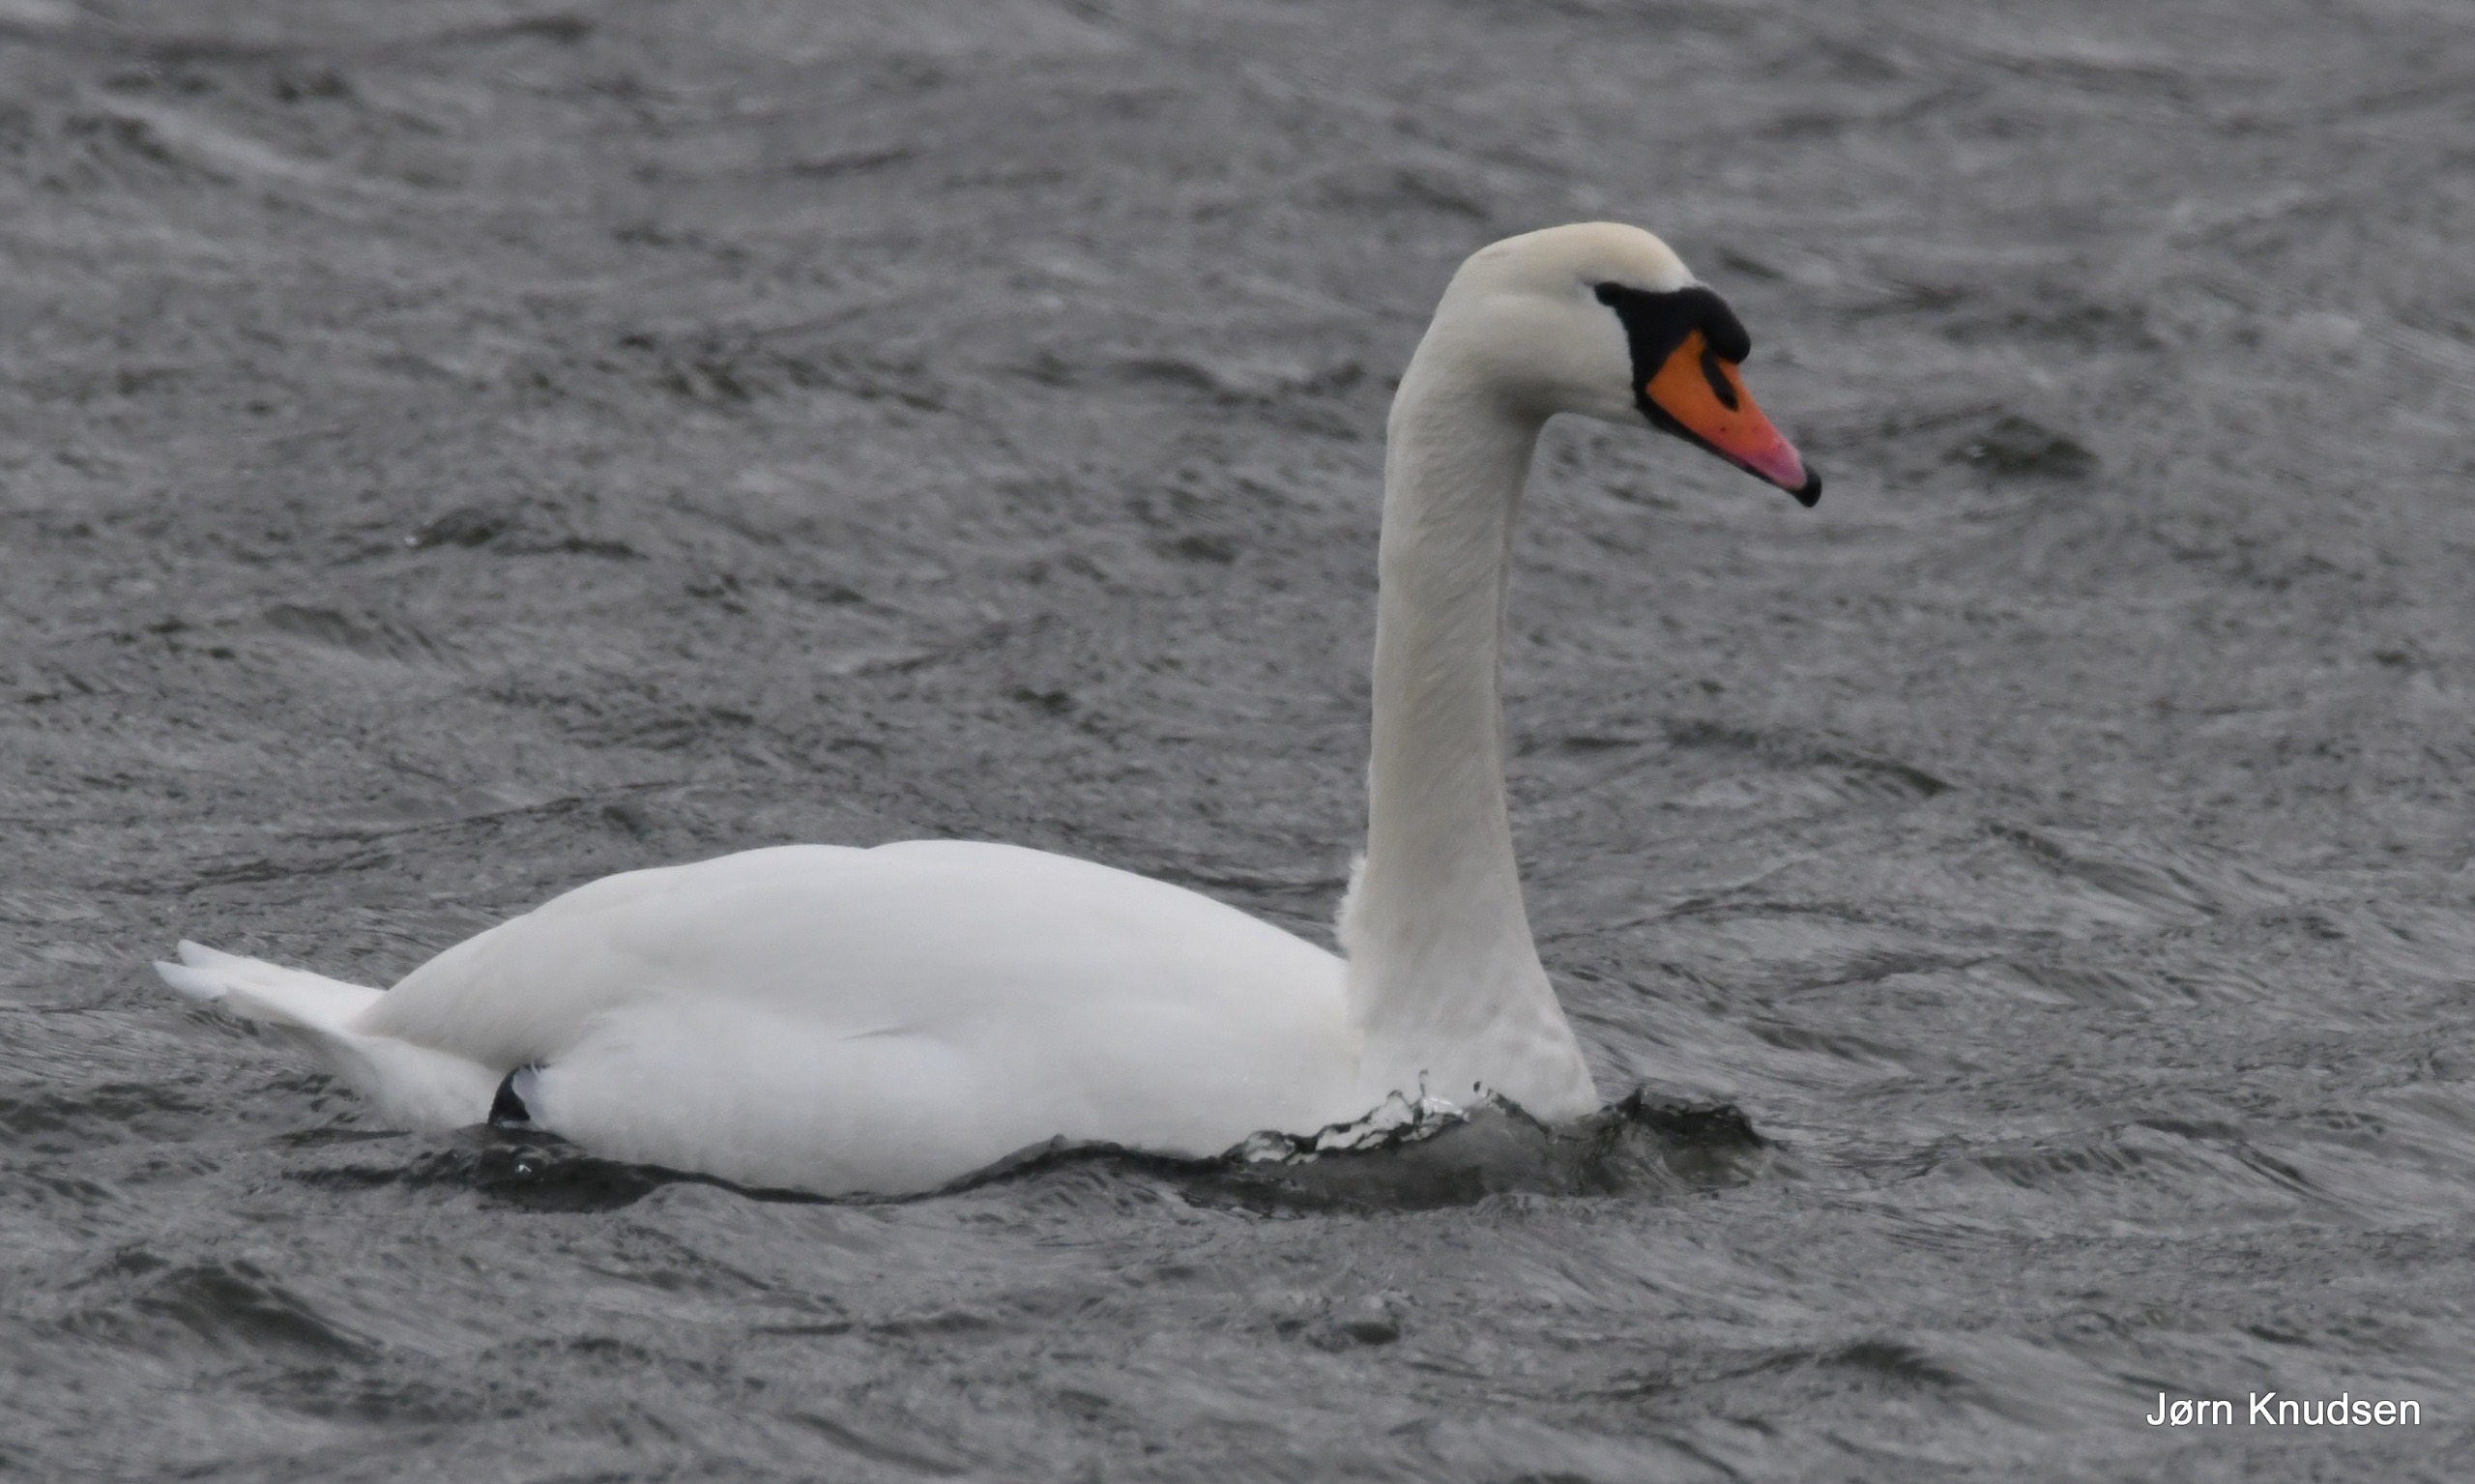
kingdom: Animalia
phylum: Chordata
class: Aves
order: Anseriformes
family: Anatidae
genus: Cygnus
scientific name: Cygnus olor
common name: Knopsvane
